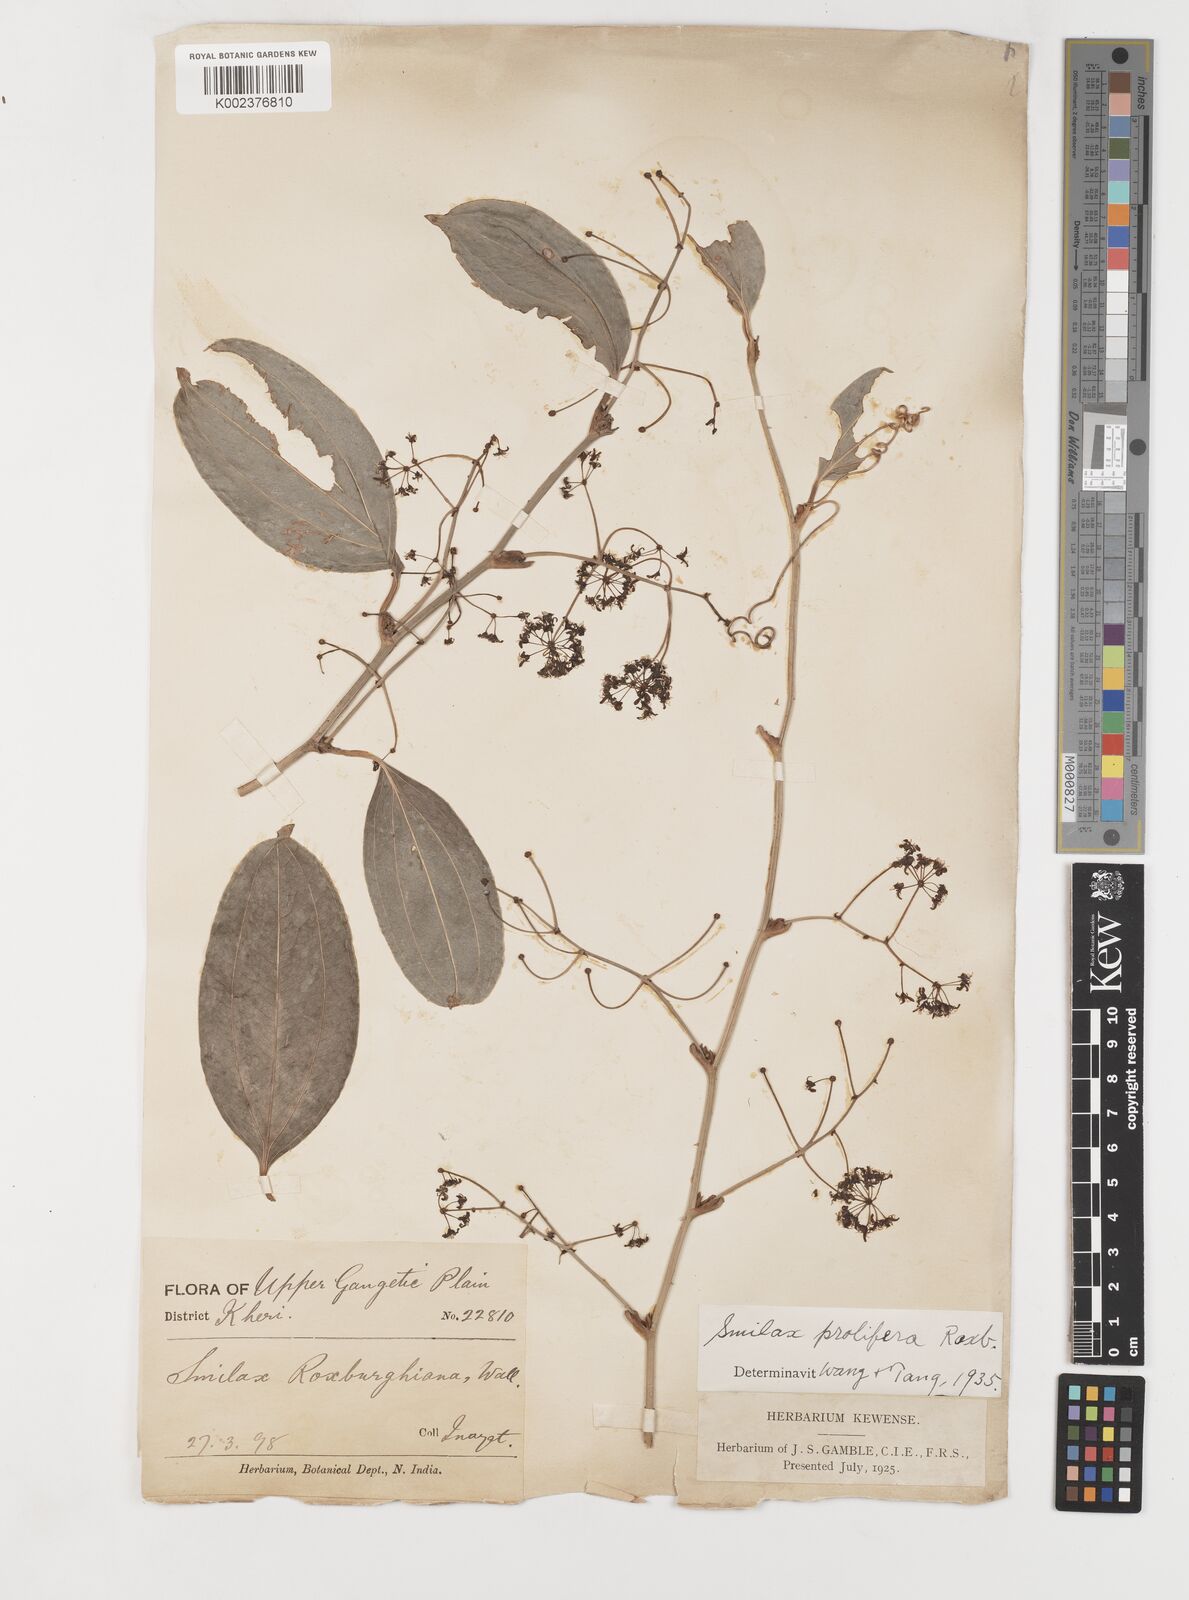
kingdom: Plantae
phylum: Tracheophyta
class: Liliopsida
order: Liliales
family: Smilacaceae
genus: Smilax
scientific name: Smilax prolifera
